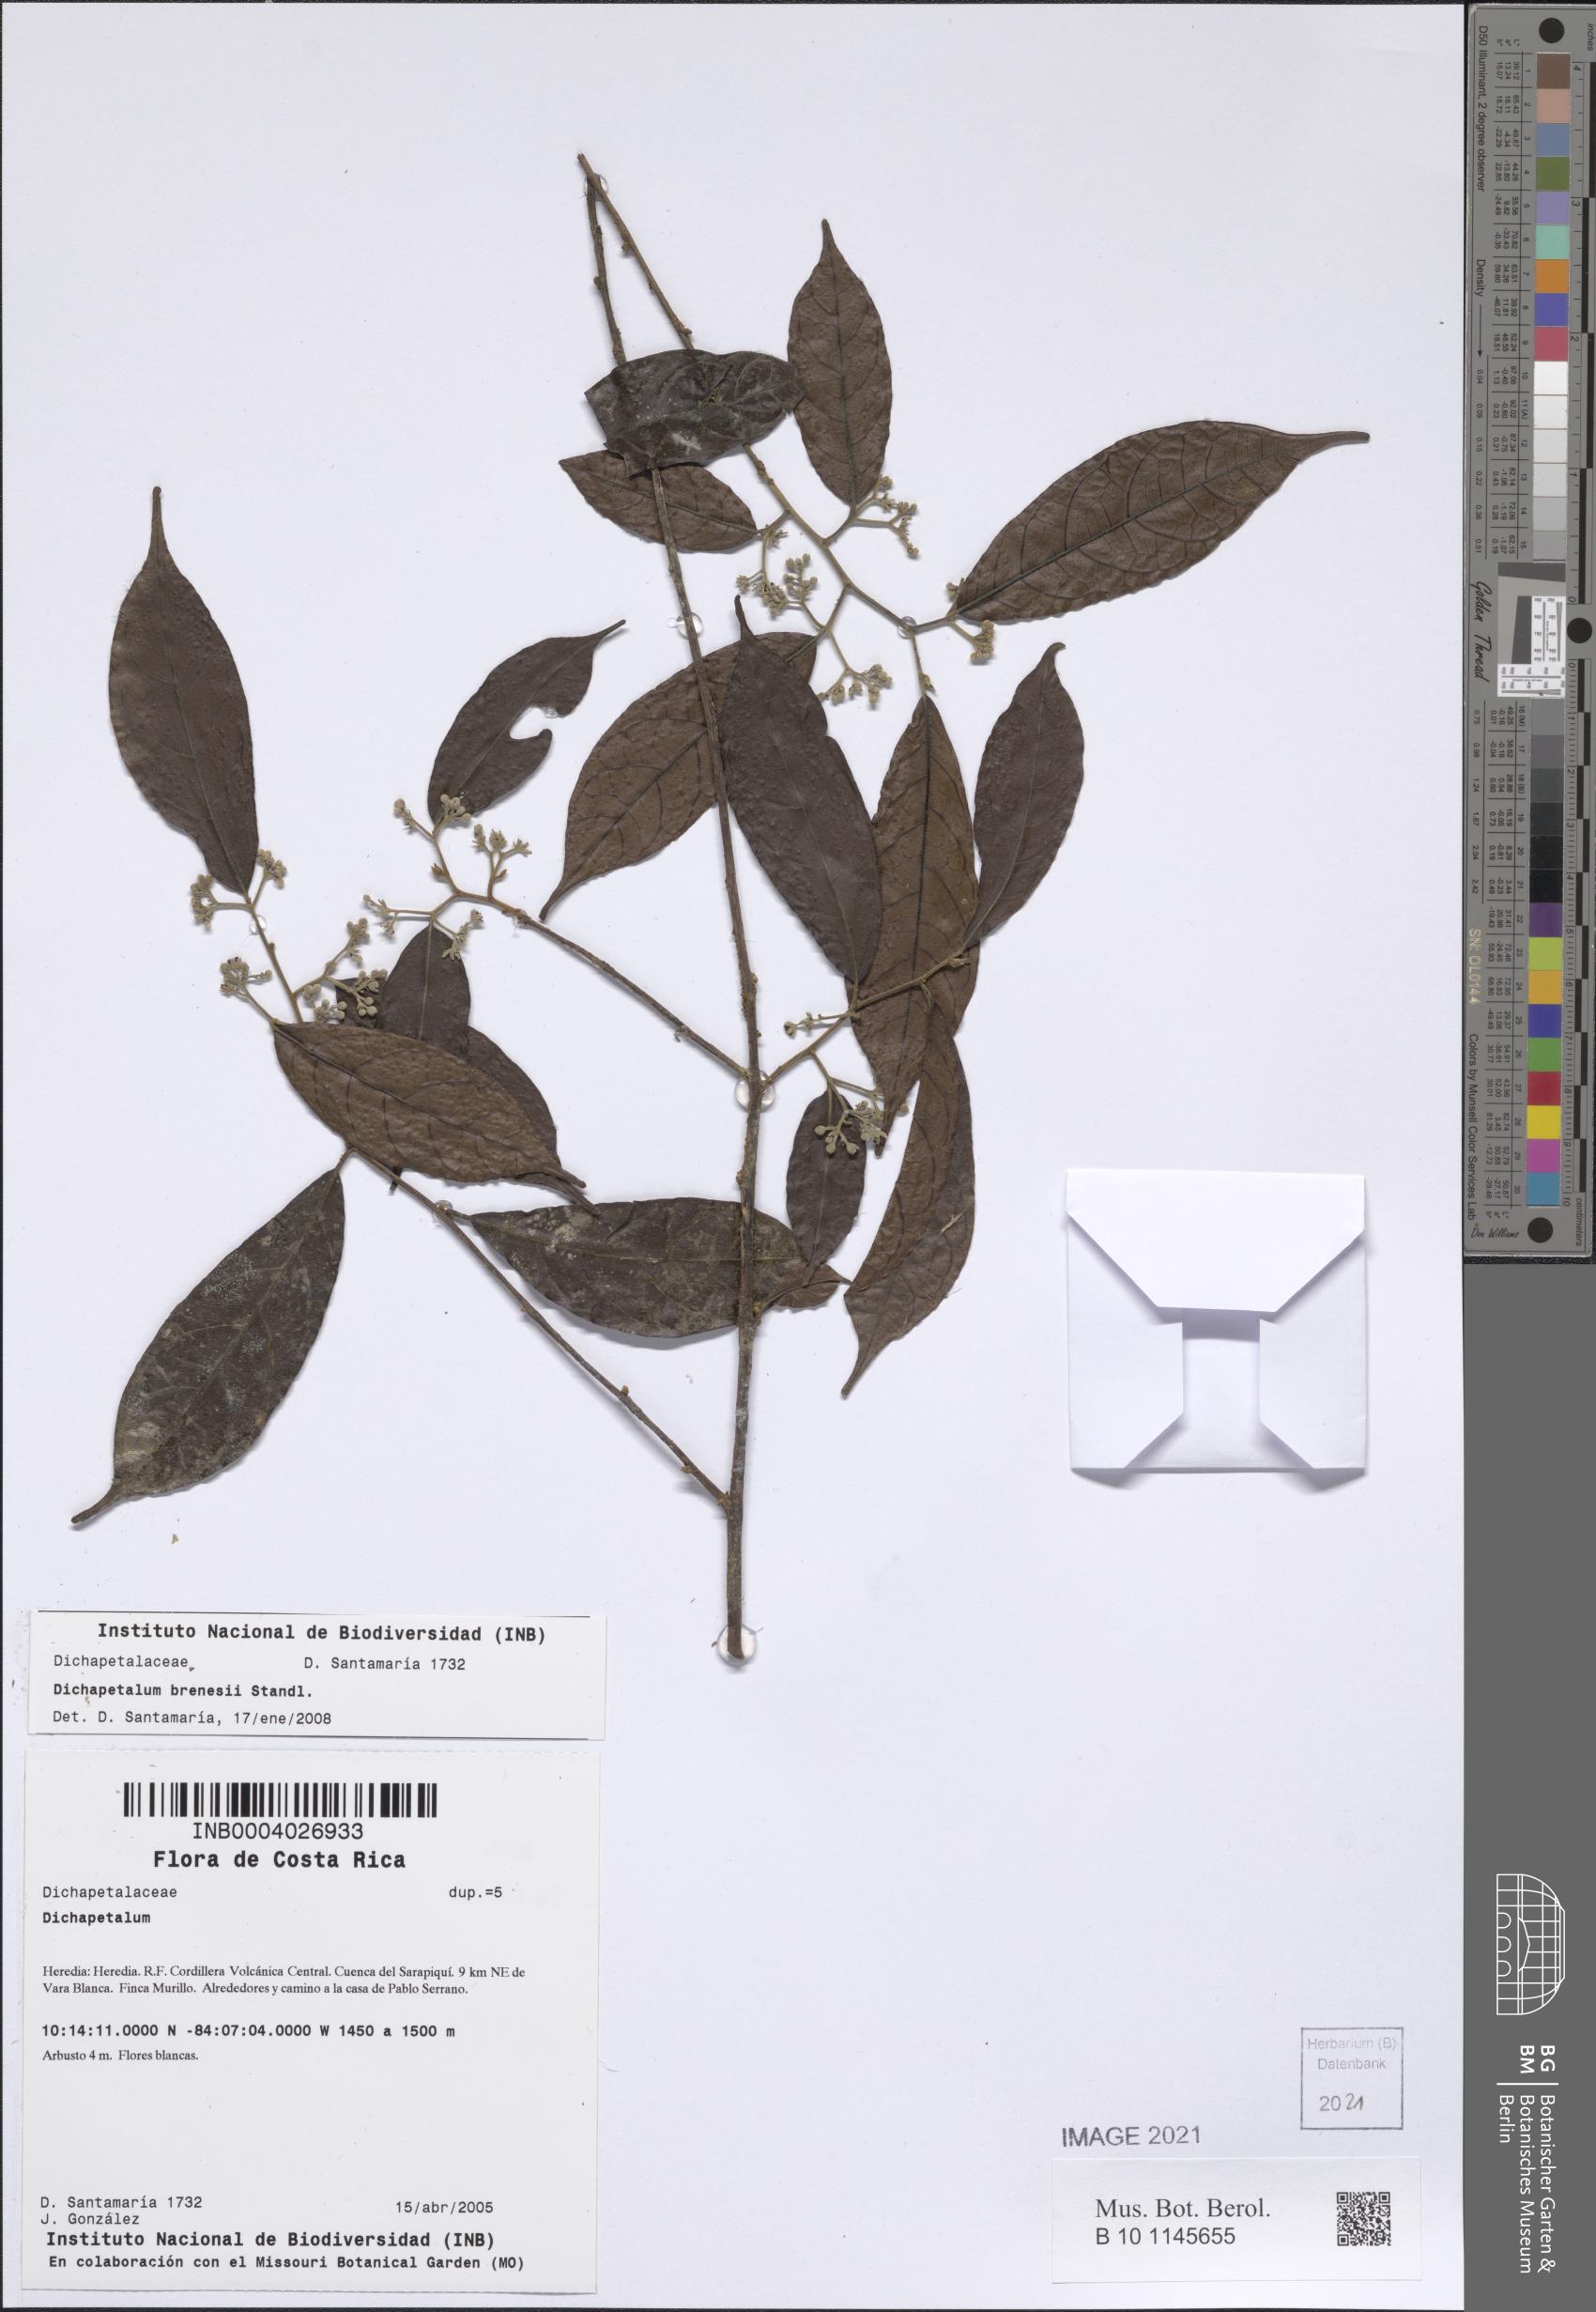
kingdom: Plantae
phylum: Tracheophyta
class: Magnoliopsida
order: Malpighiales
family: Dichapetalaceae
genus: Dichapetalum
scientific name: Dichapetalum brenesii
